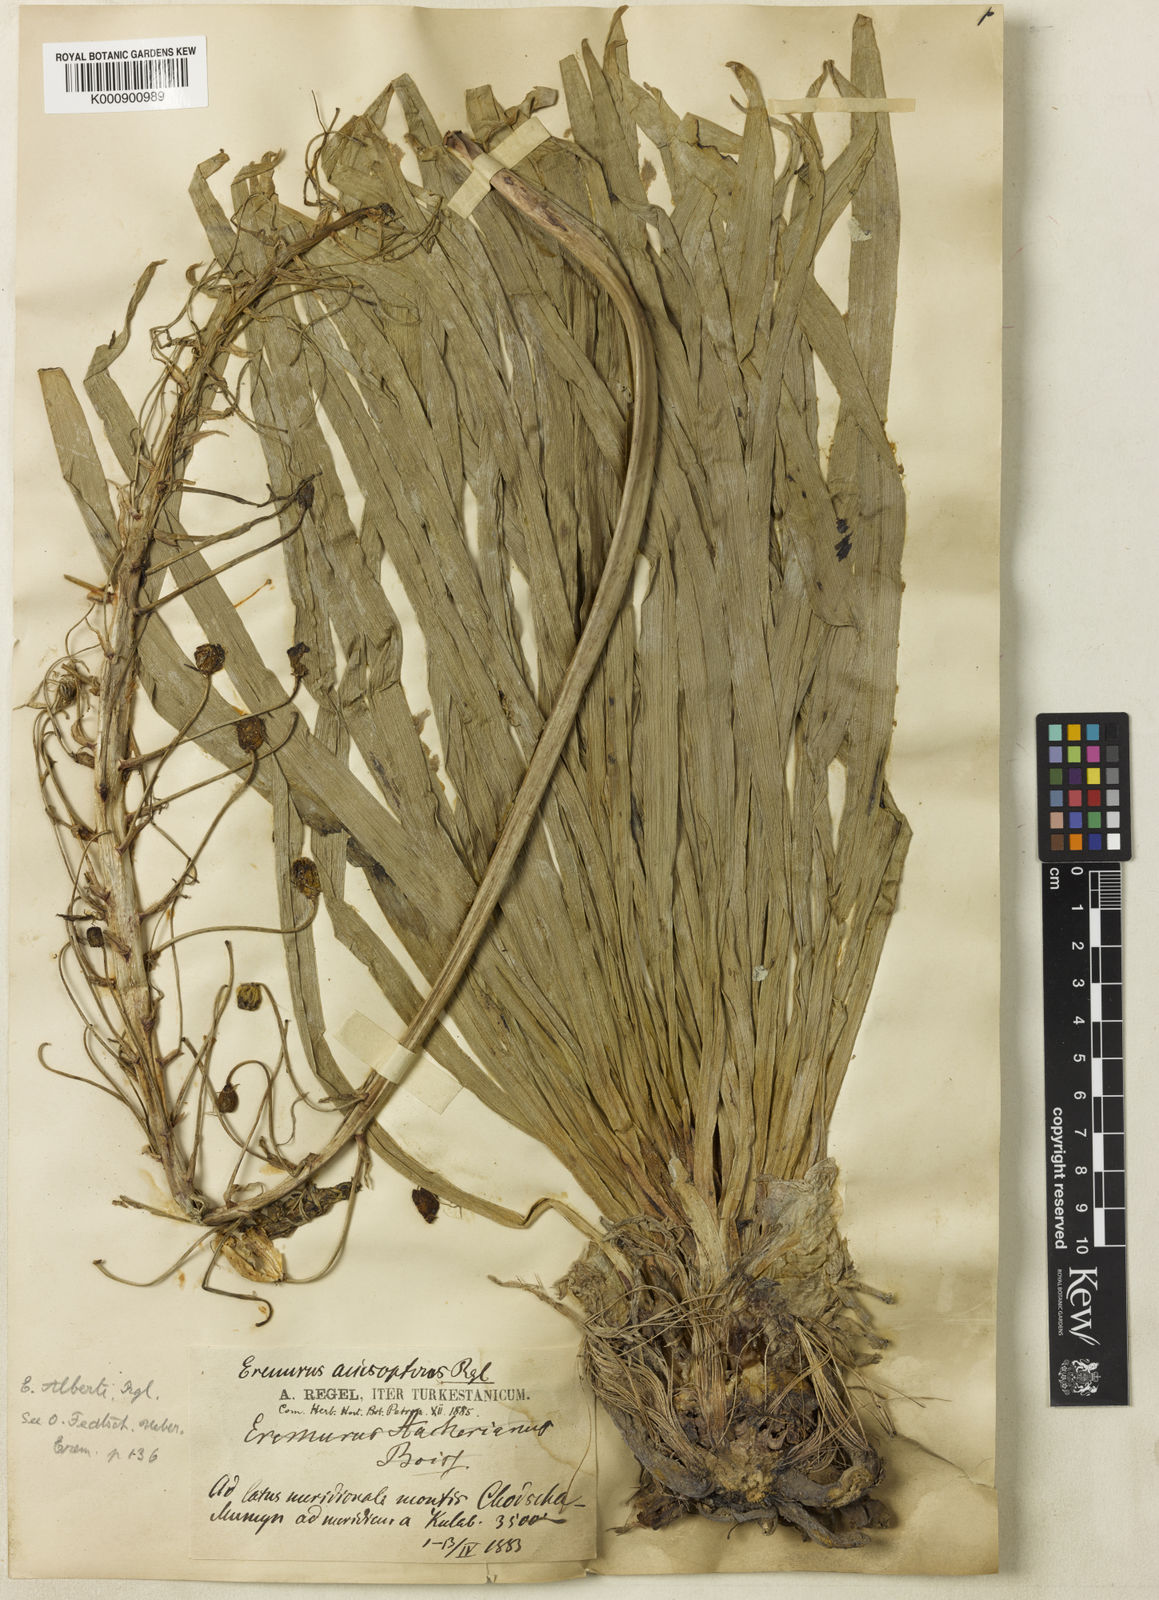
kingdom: Plantae
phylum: Tracheophyta
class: Liliopsida
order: Asparagales
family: Asphodelaceae
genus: Eremurus
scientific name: Eremurus alberti
